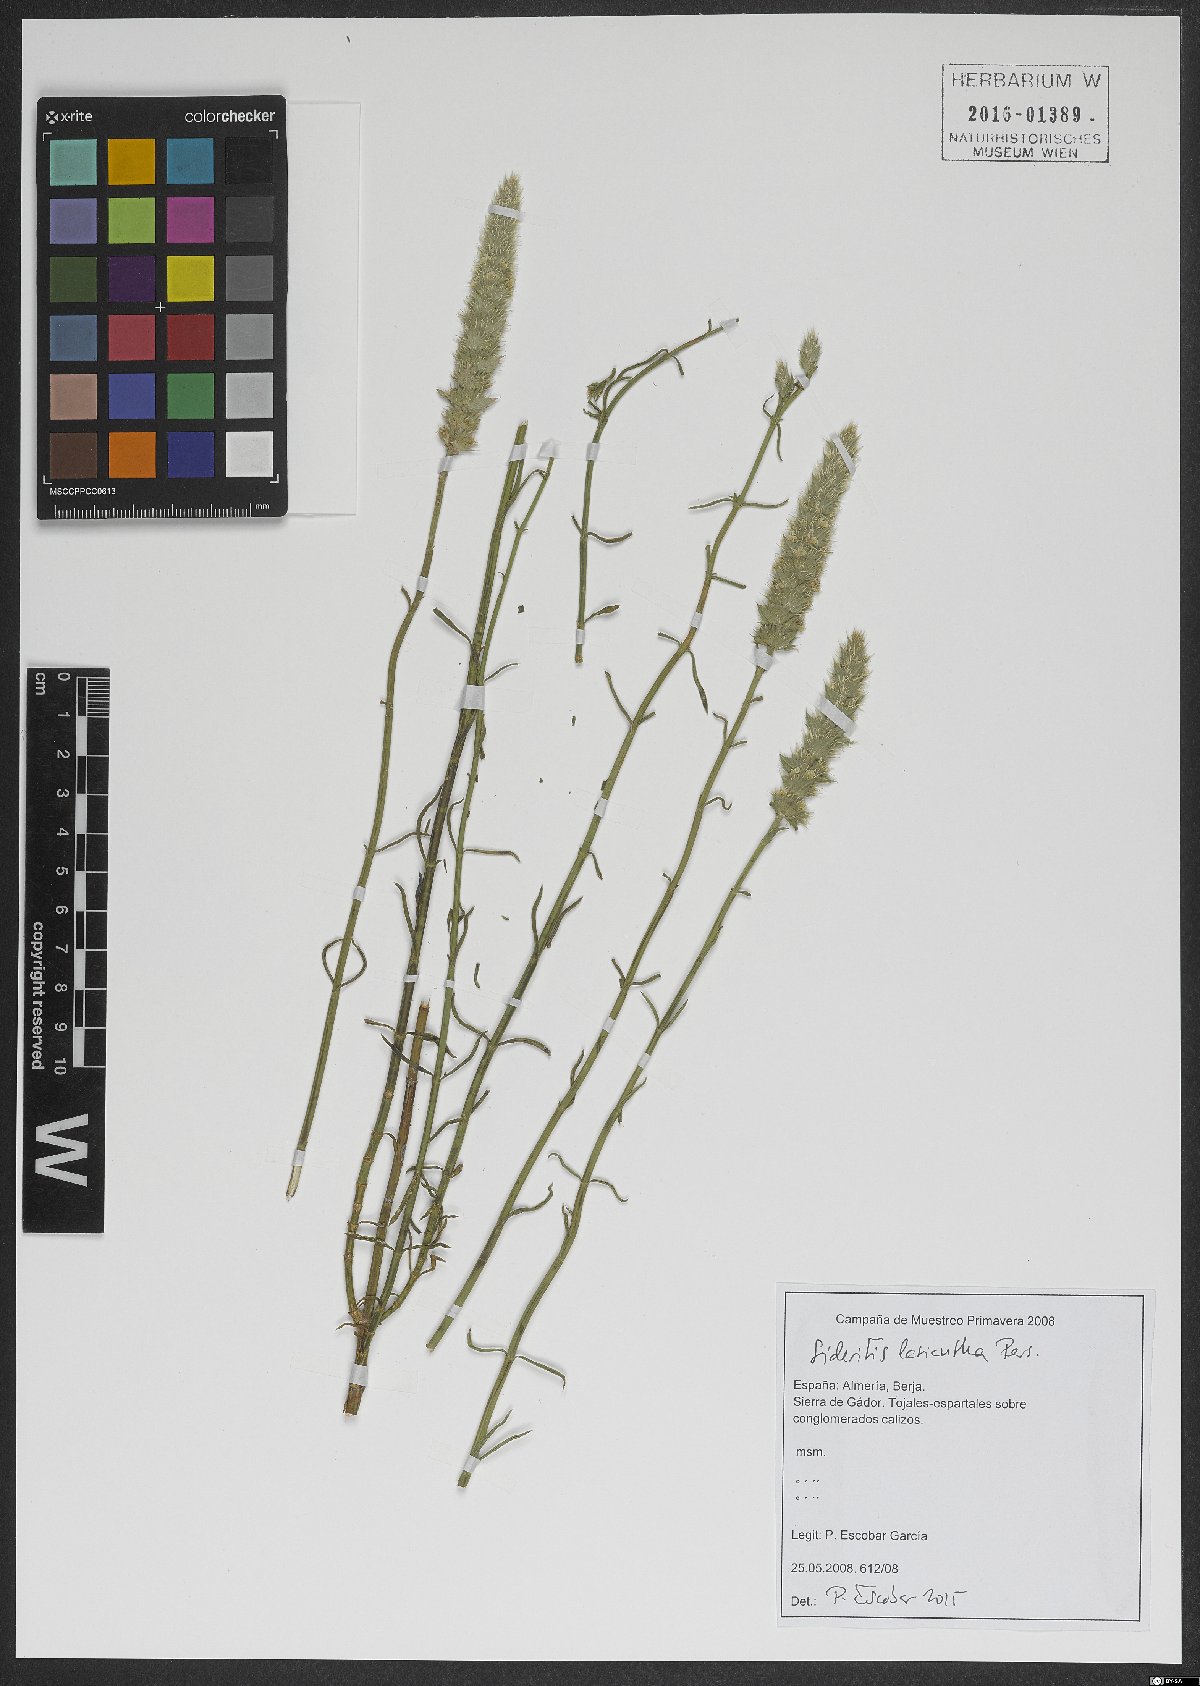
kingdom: Plantae
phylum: Tracheophyta
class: Magnoliopsida
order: Lamiales
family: Lamiaceae
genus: Sideritis
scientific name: Sideritis lasiantha
